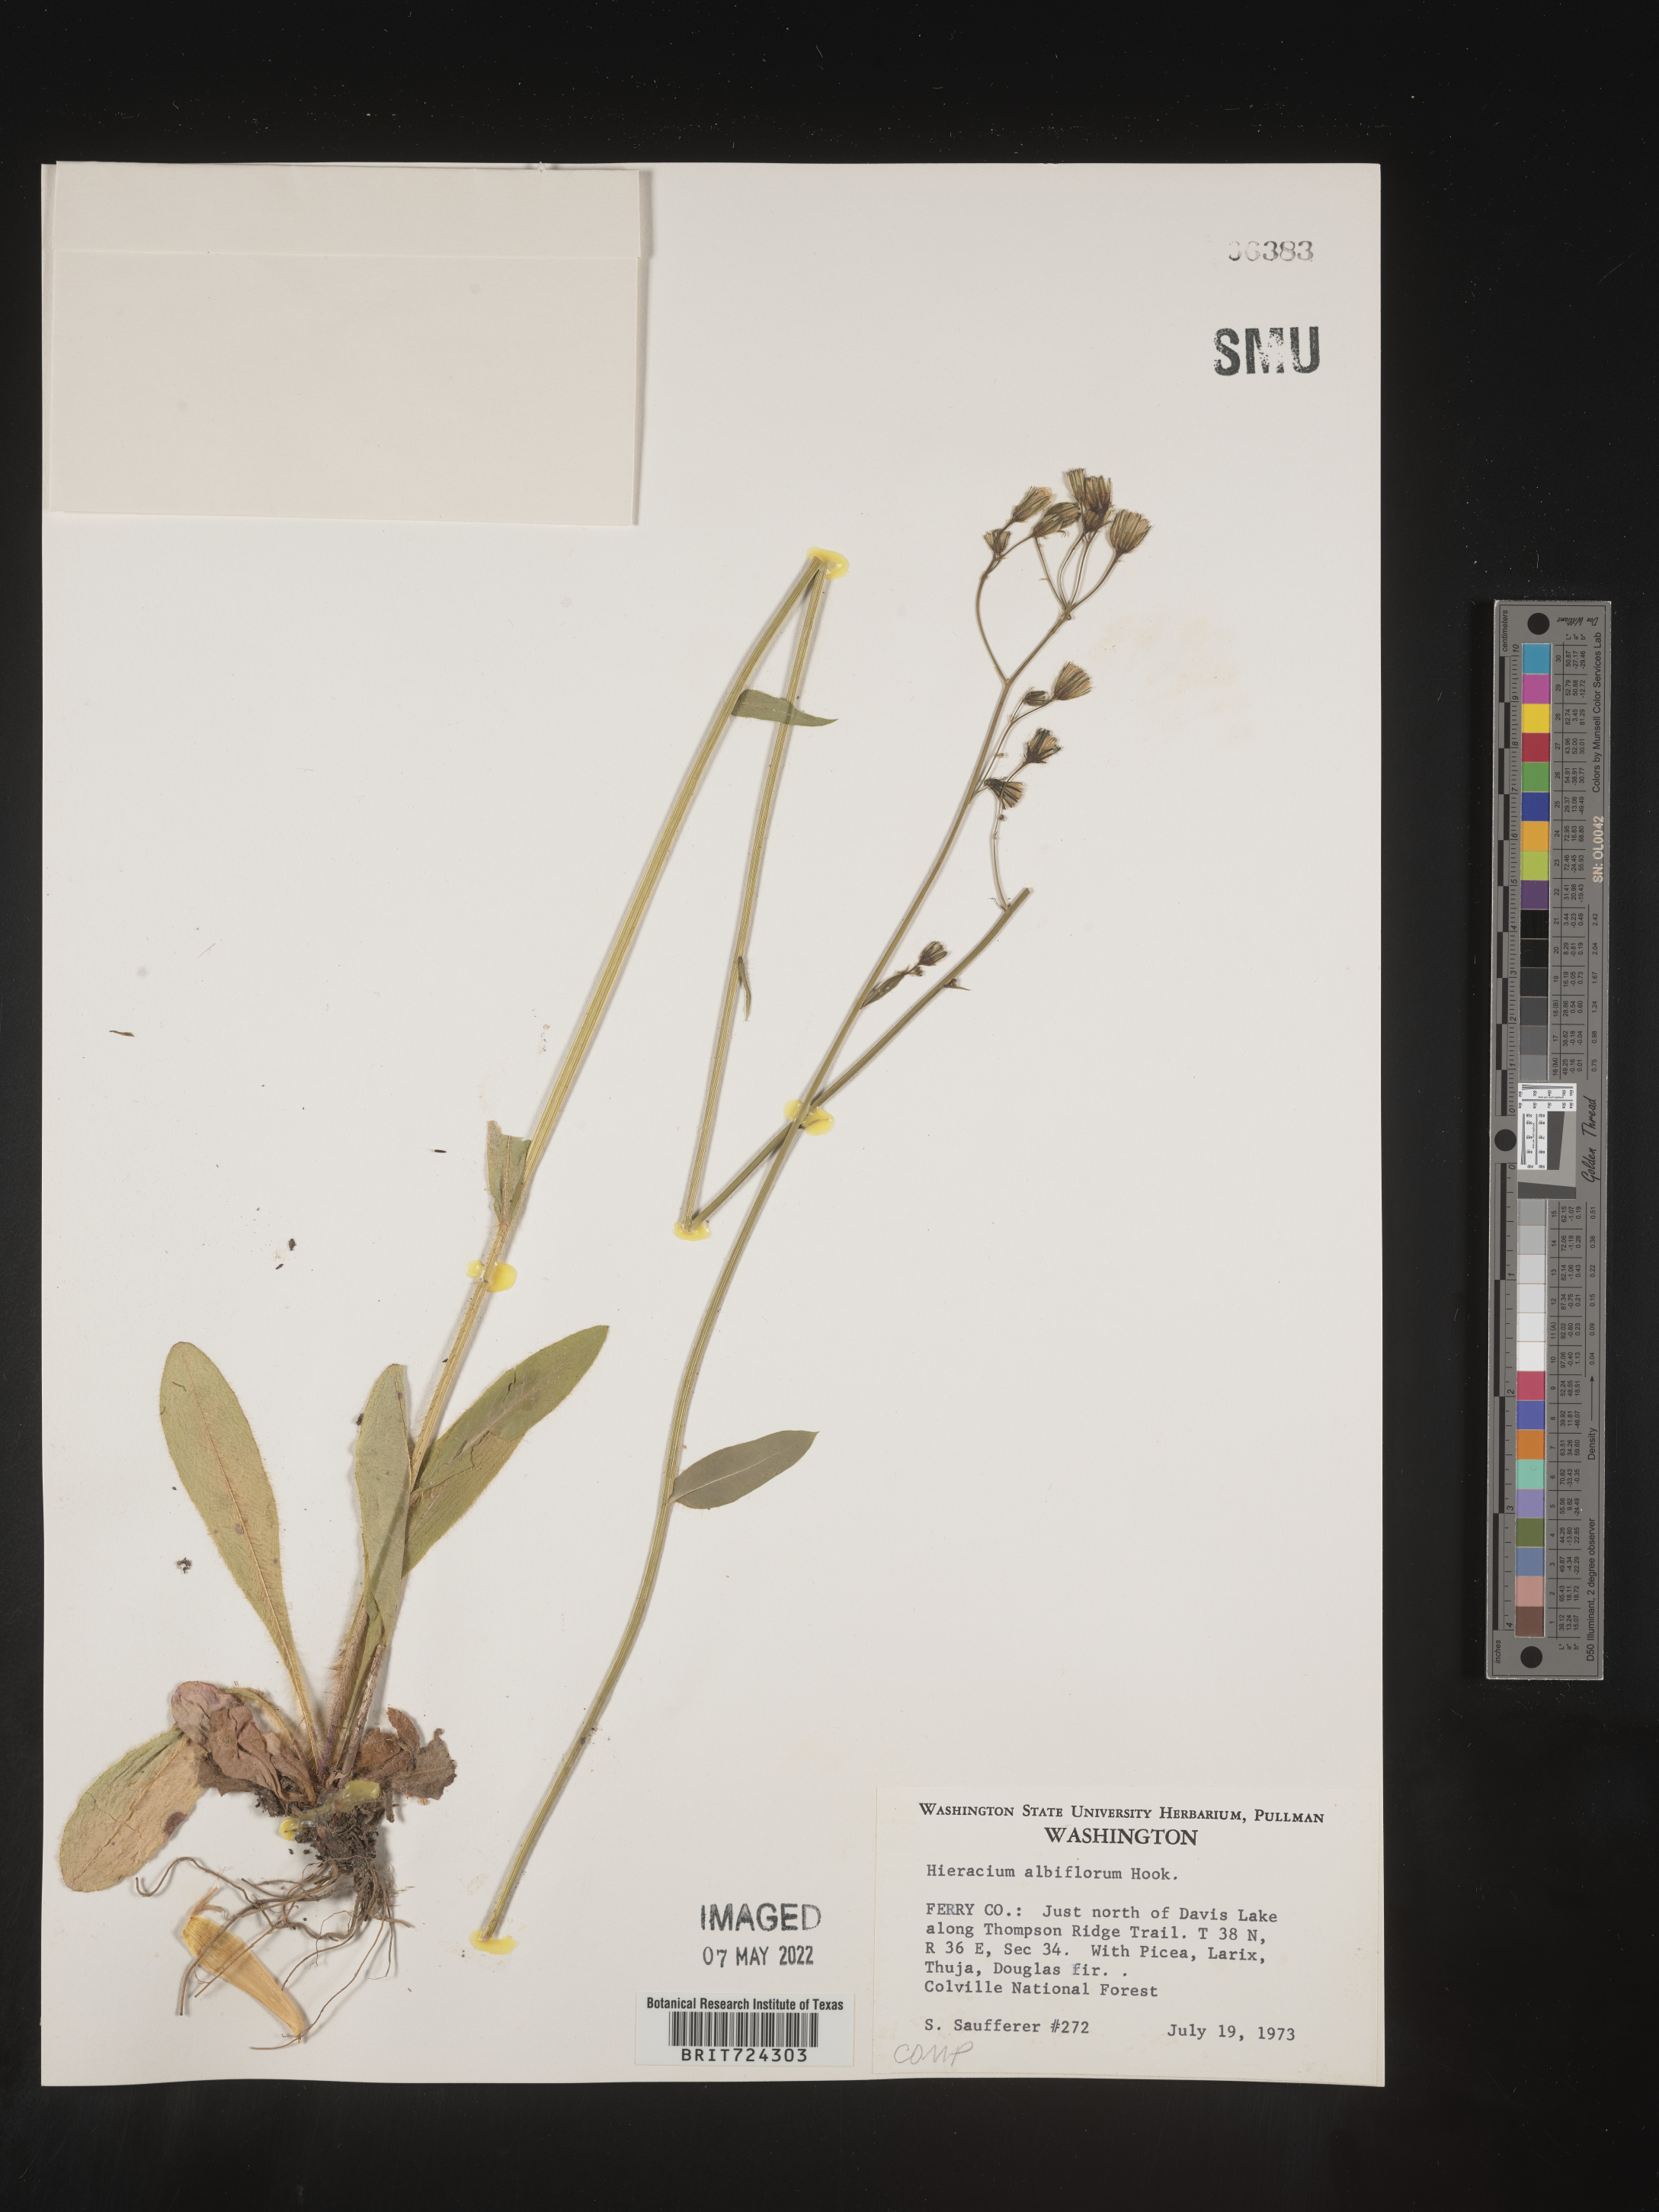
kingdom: Plantae
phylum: Tracheophyta
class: Magnoliopsida
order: Asterales
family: Asteraceae
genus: Hieracium
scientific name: Hieracium albiflorum
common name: White hawkweed
